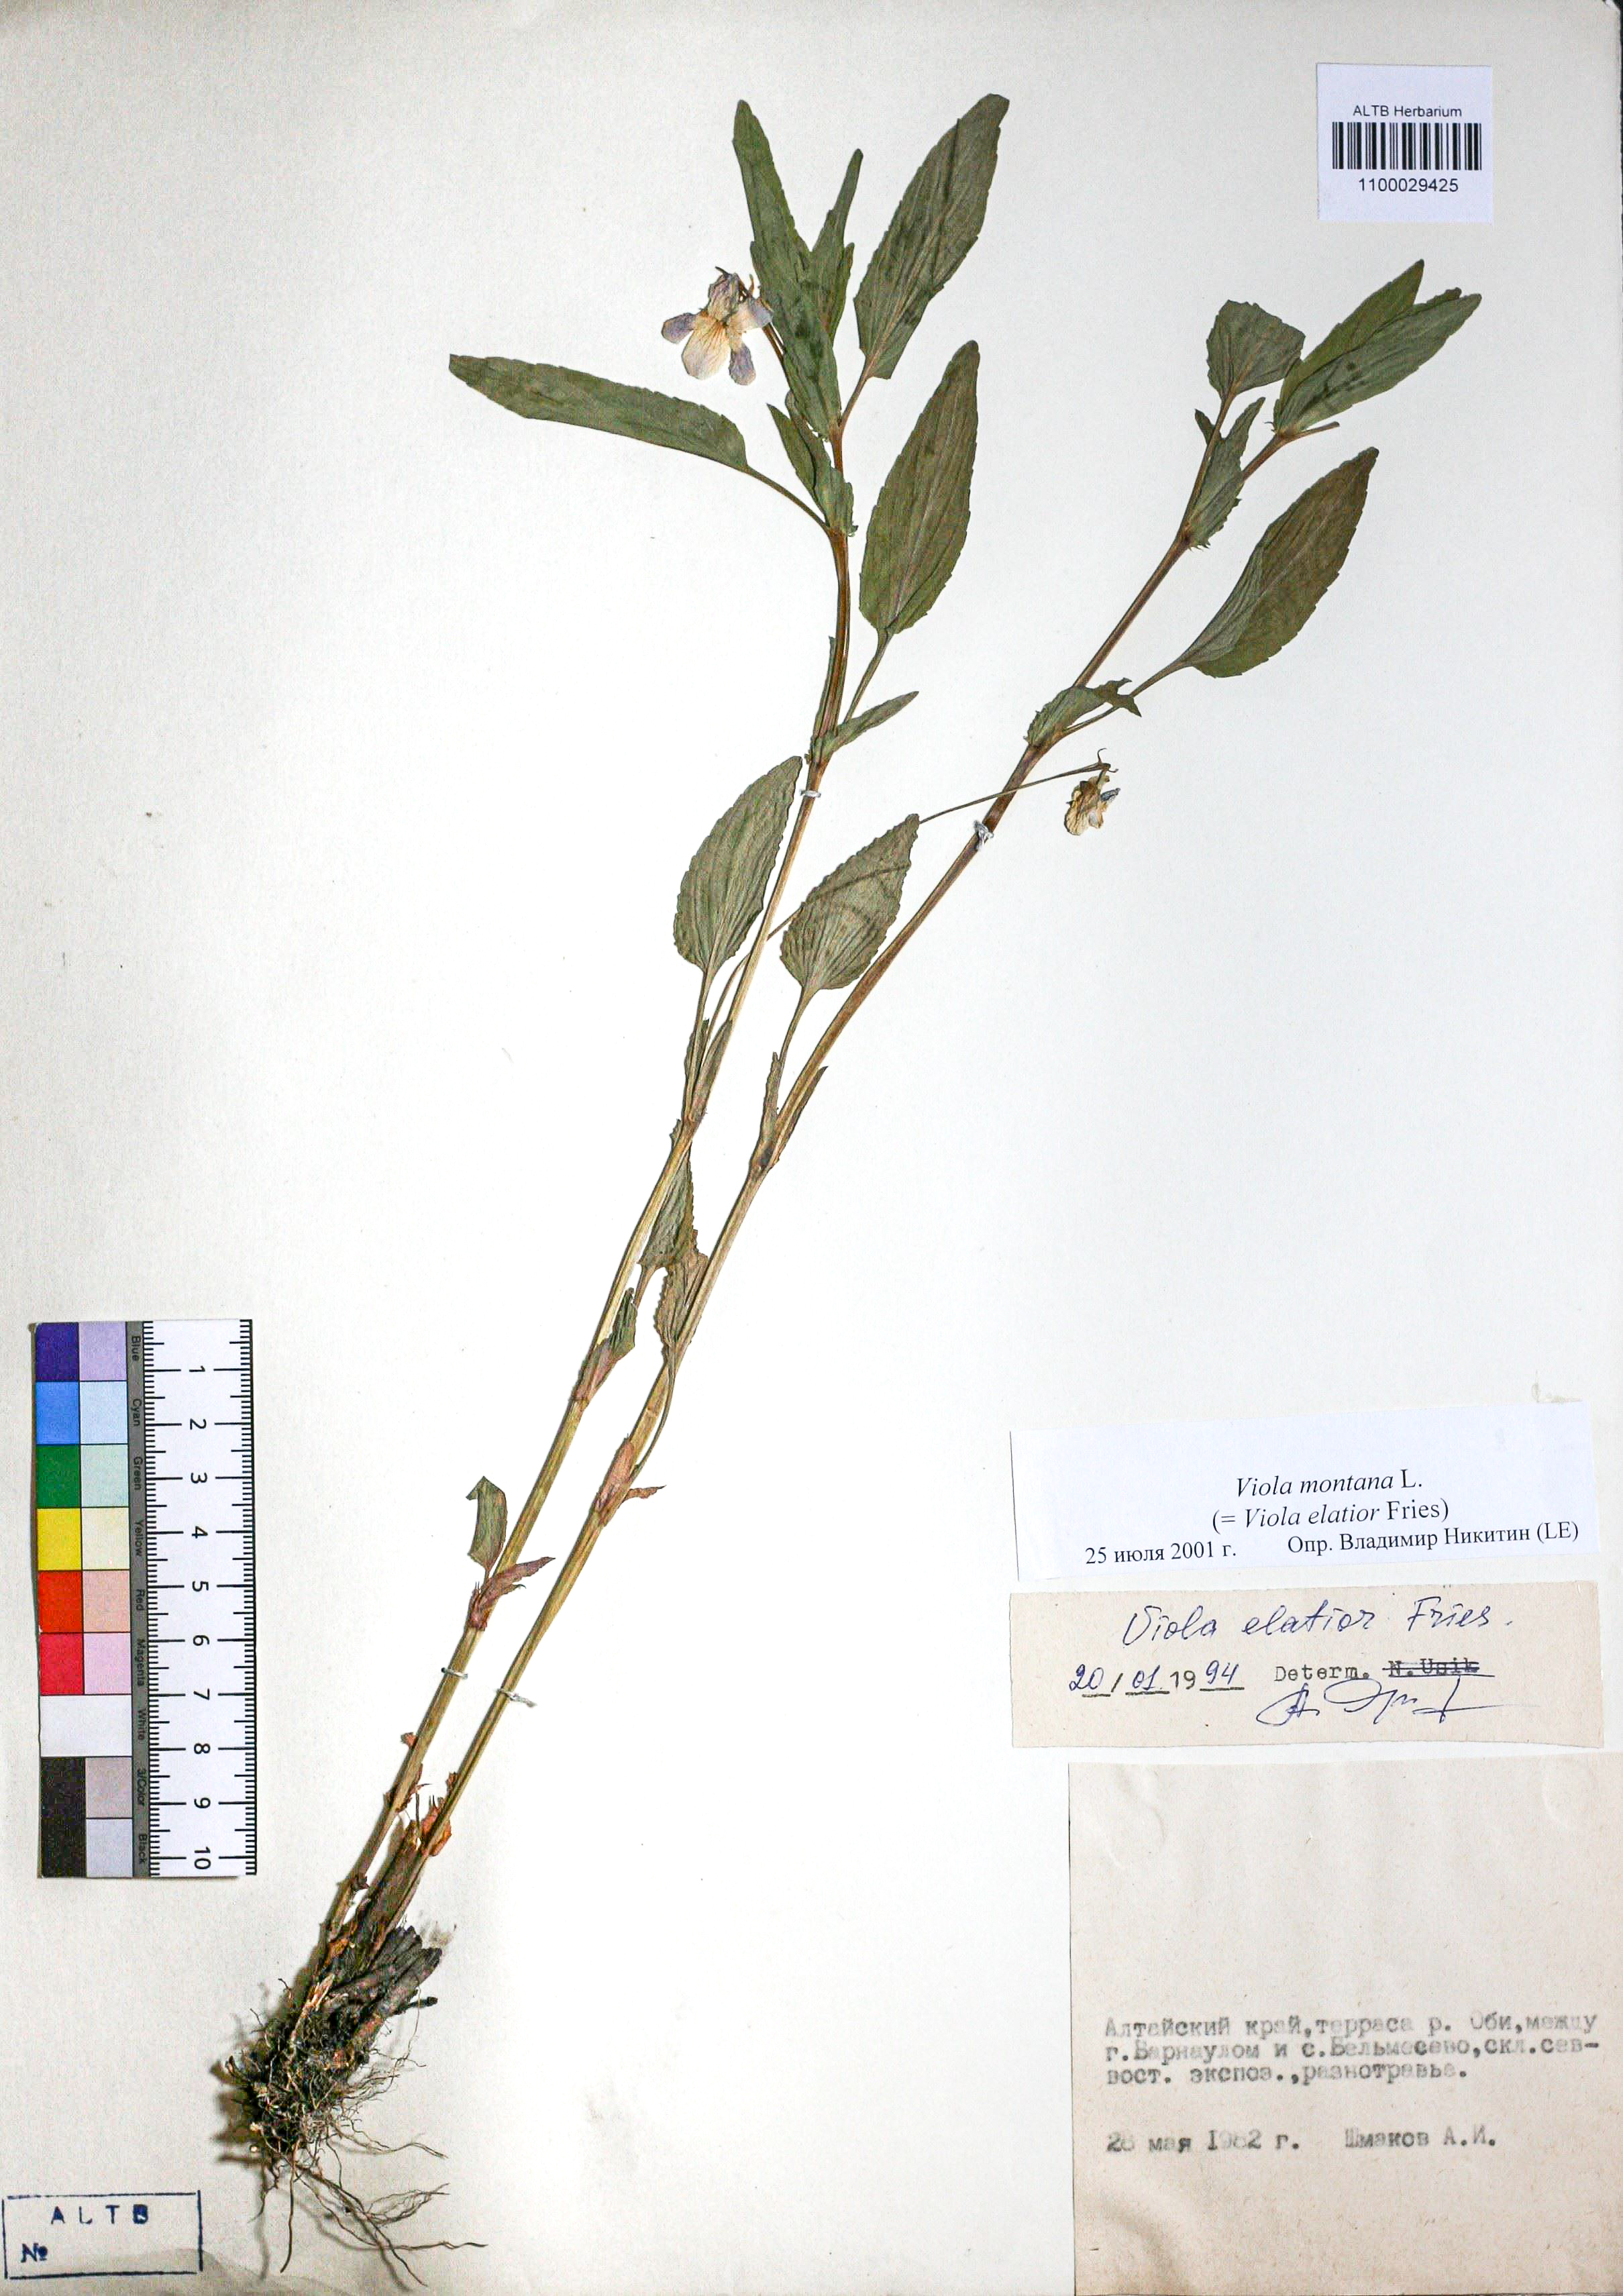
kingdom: Plantae
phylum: Tracheophyta
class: Magnoliopsida
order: Malpighiales
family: Violaceae
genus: Viola
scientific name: Viola ruppii
